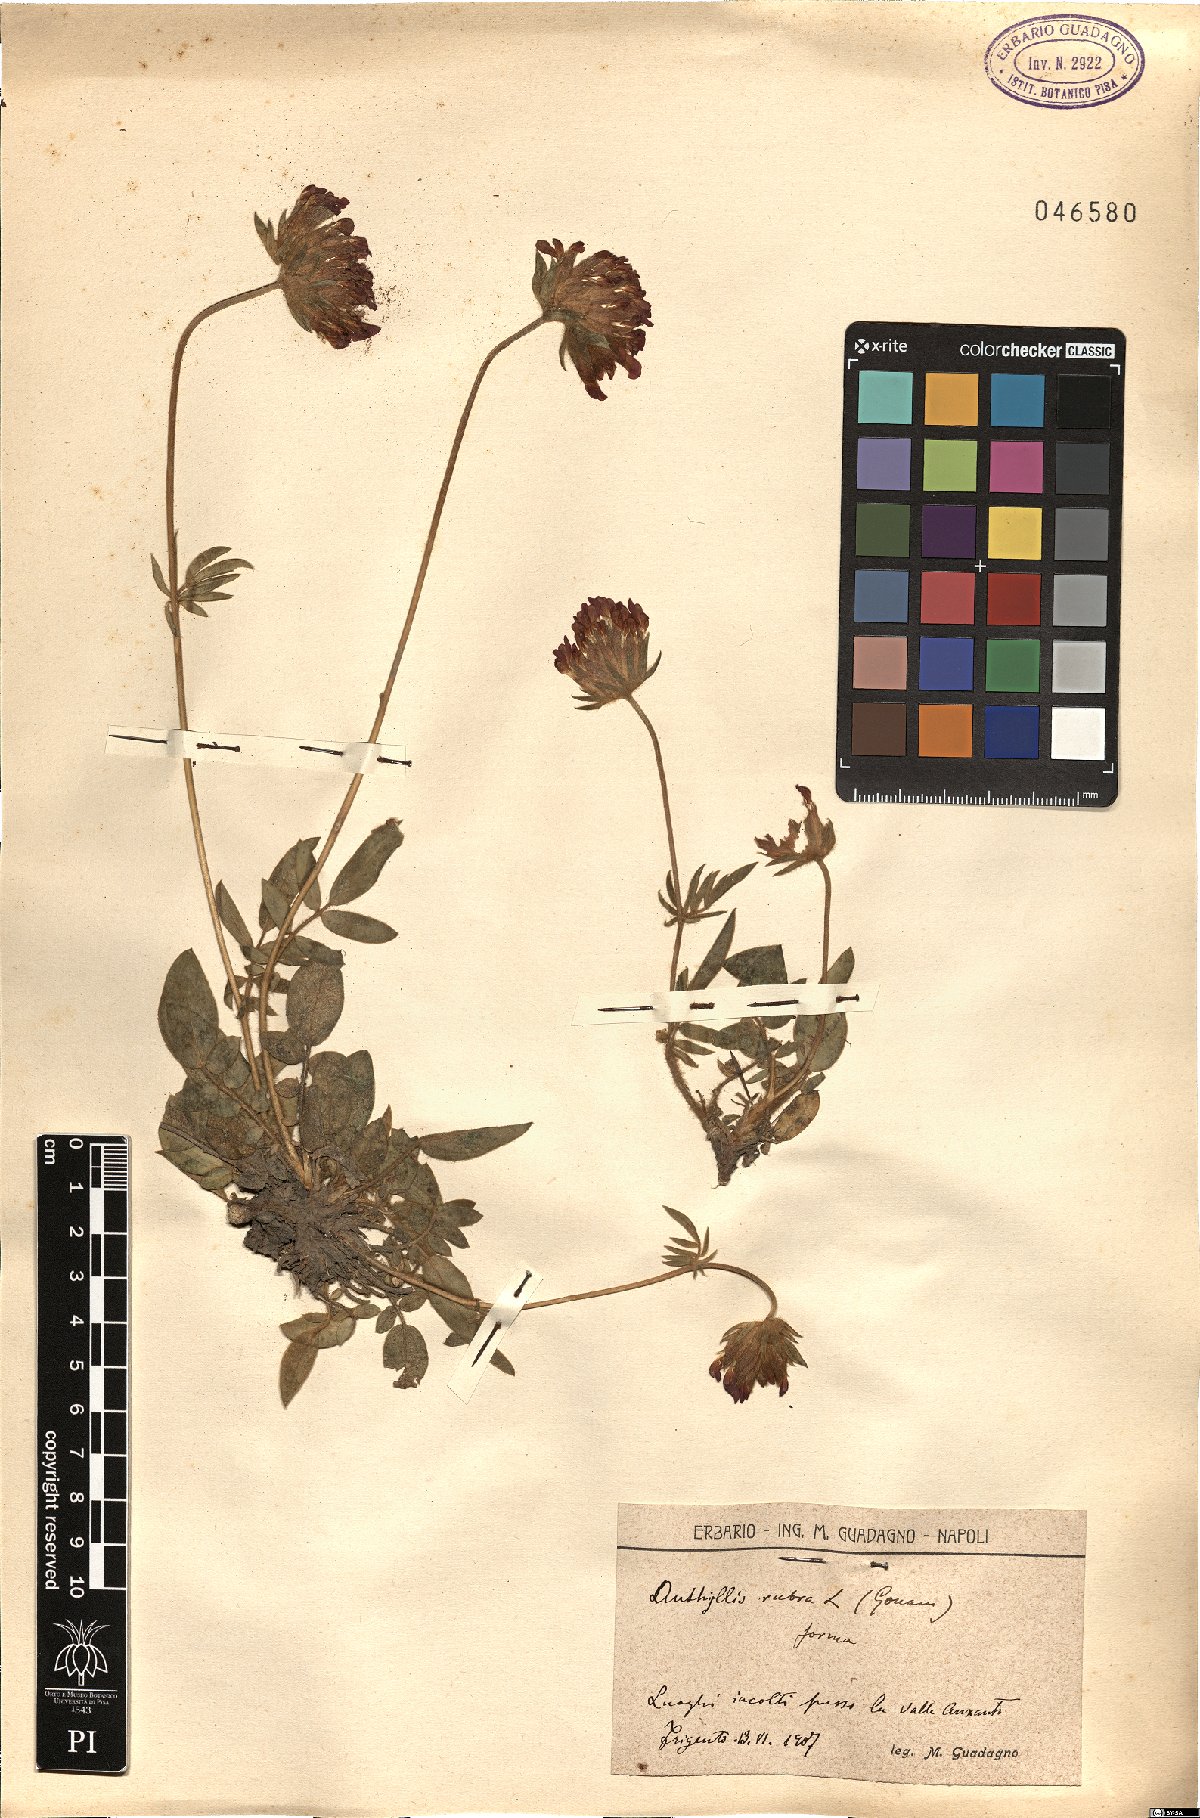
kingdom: Plantae
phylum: Tracheophyta
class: Magnoliopsida
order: Fabales
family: Fabaceae
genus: Anthyllis
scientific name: Anthyllis vulneraria
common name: Kidney vetch
